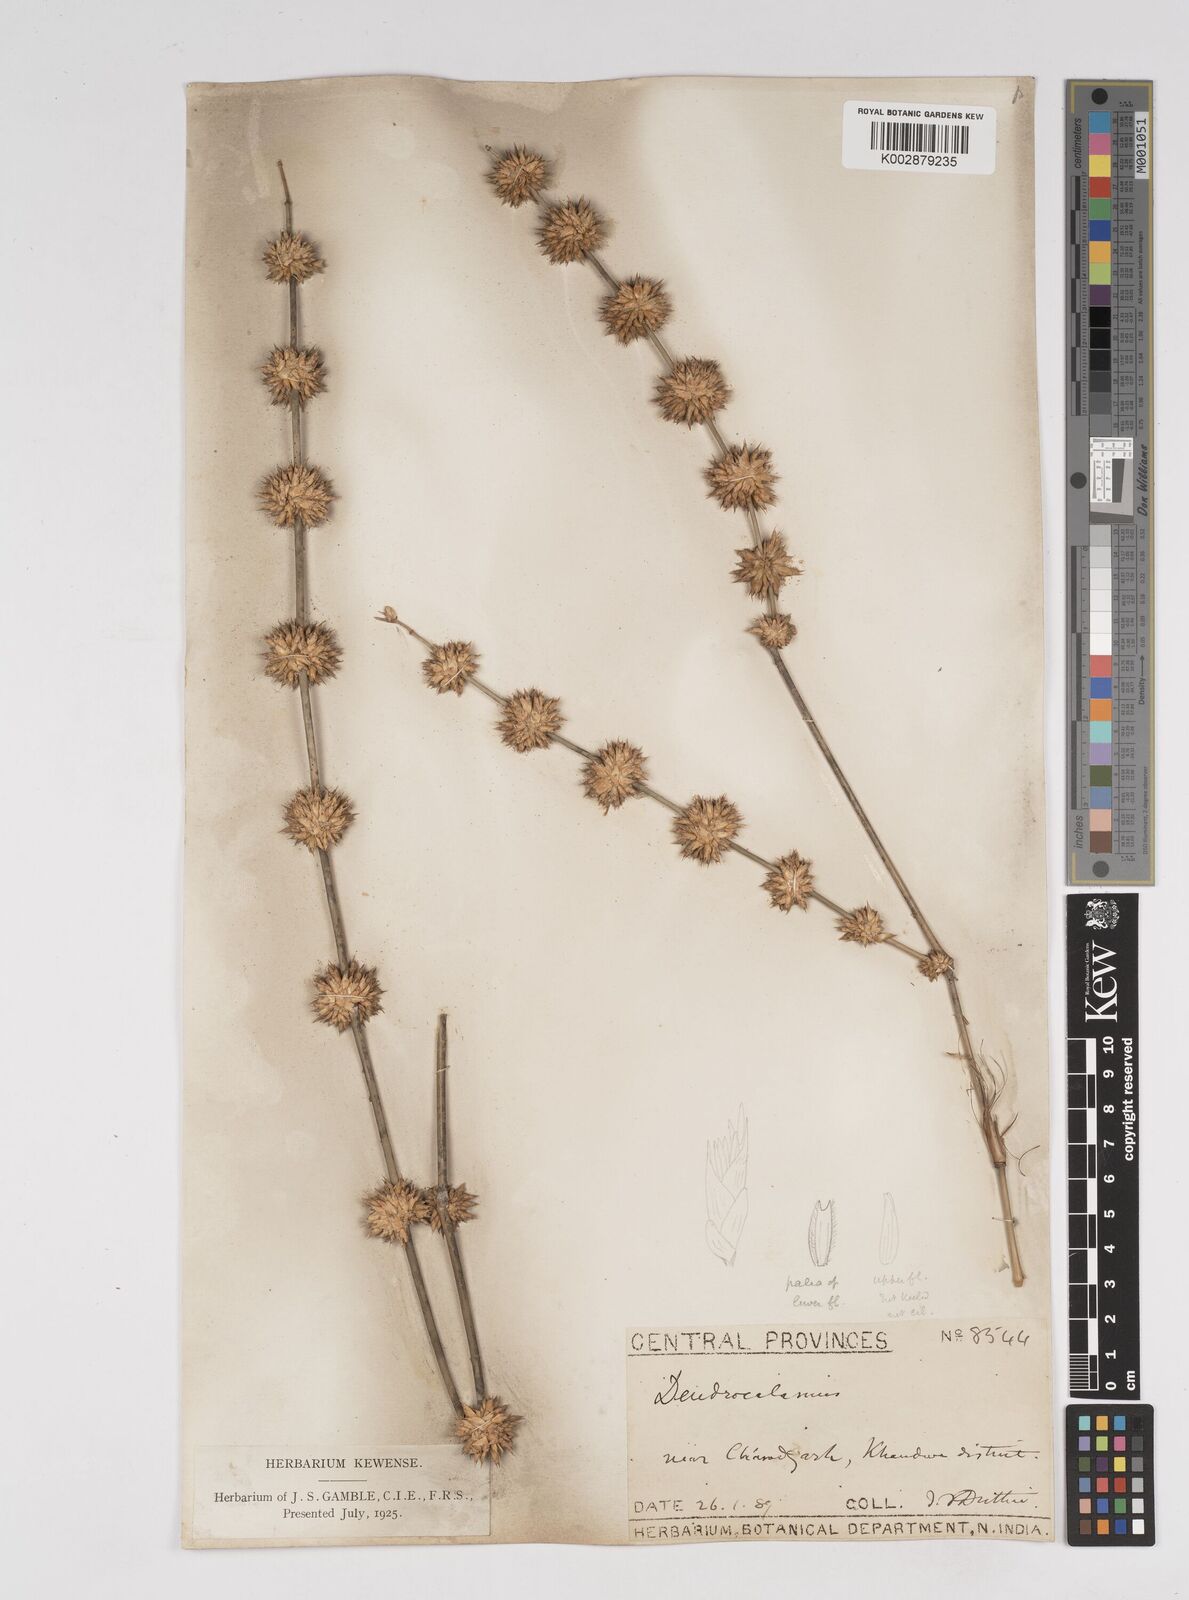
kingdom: Plantae
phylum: Tracheophyta
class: Liliopsida
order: Poales
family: Poaceae
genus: Dendrocalamus
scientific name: Dendrocalamus strictus
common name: Male bamboo
